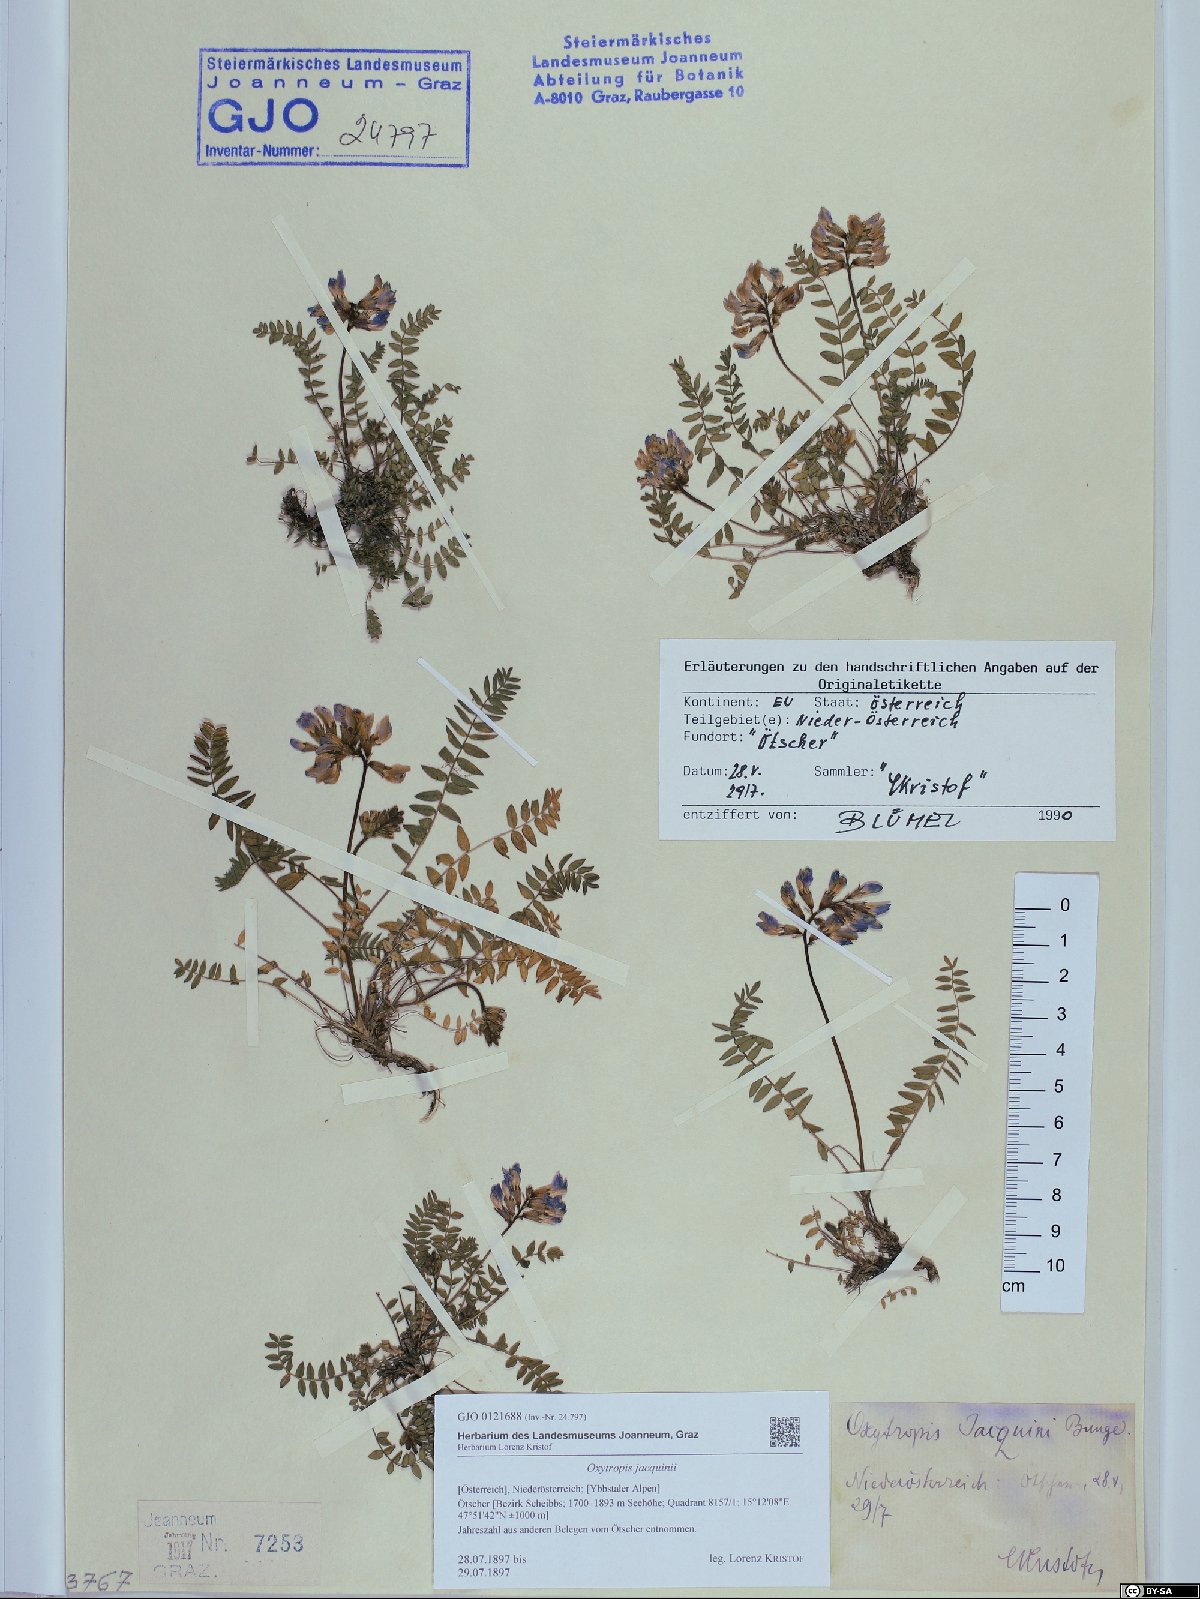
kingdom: Plantae
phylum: Tracheophyta
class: Magnoliopsida
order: Fabales
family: Fabaceae
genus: Oxytropis
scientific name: Oxytropis montana
